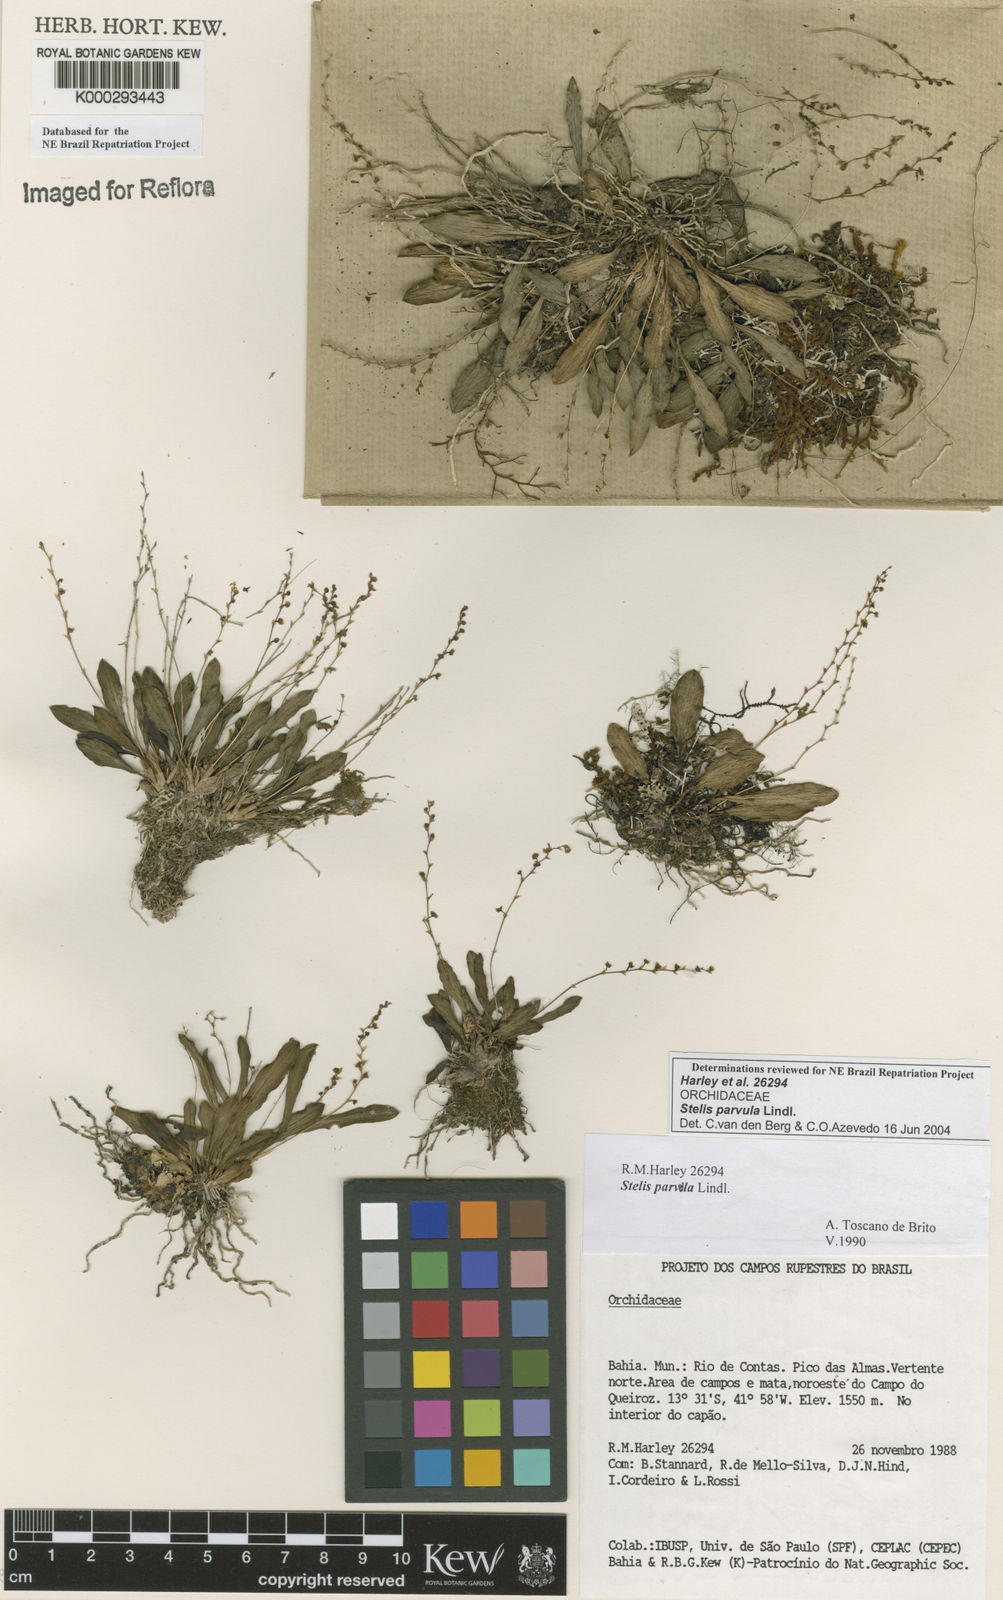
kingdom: Plantae
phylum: Tracheophyta
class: Liliopsida
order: Asparagales
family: Orchidaceae
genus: Stelis
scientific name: Stelis parvula
